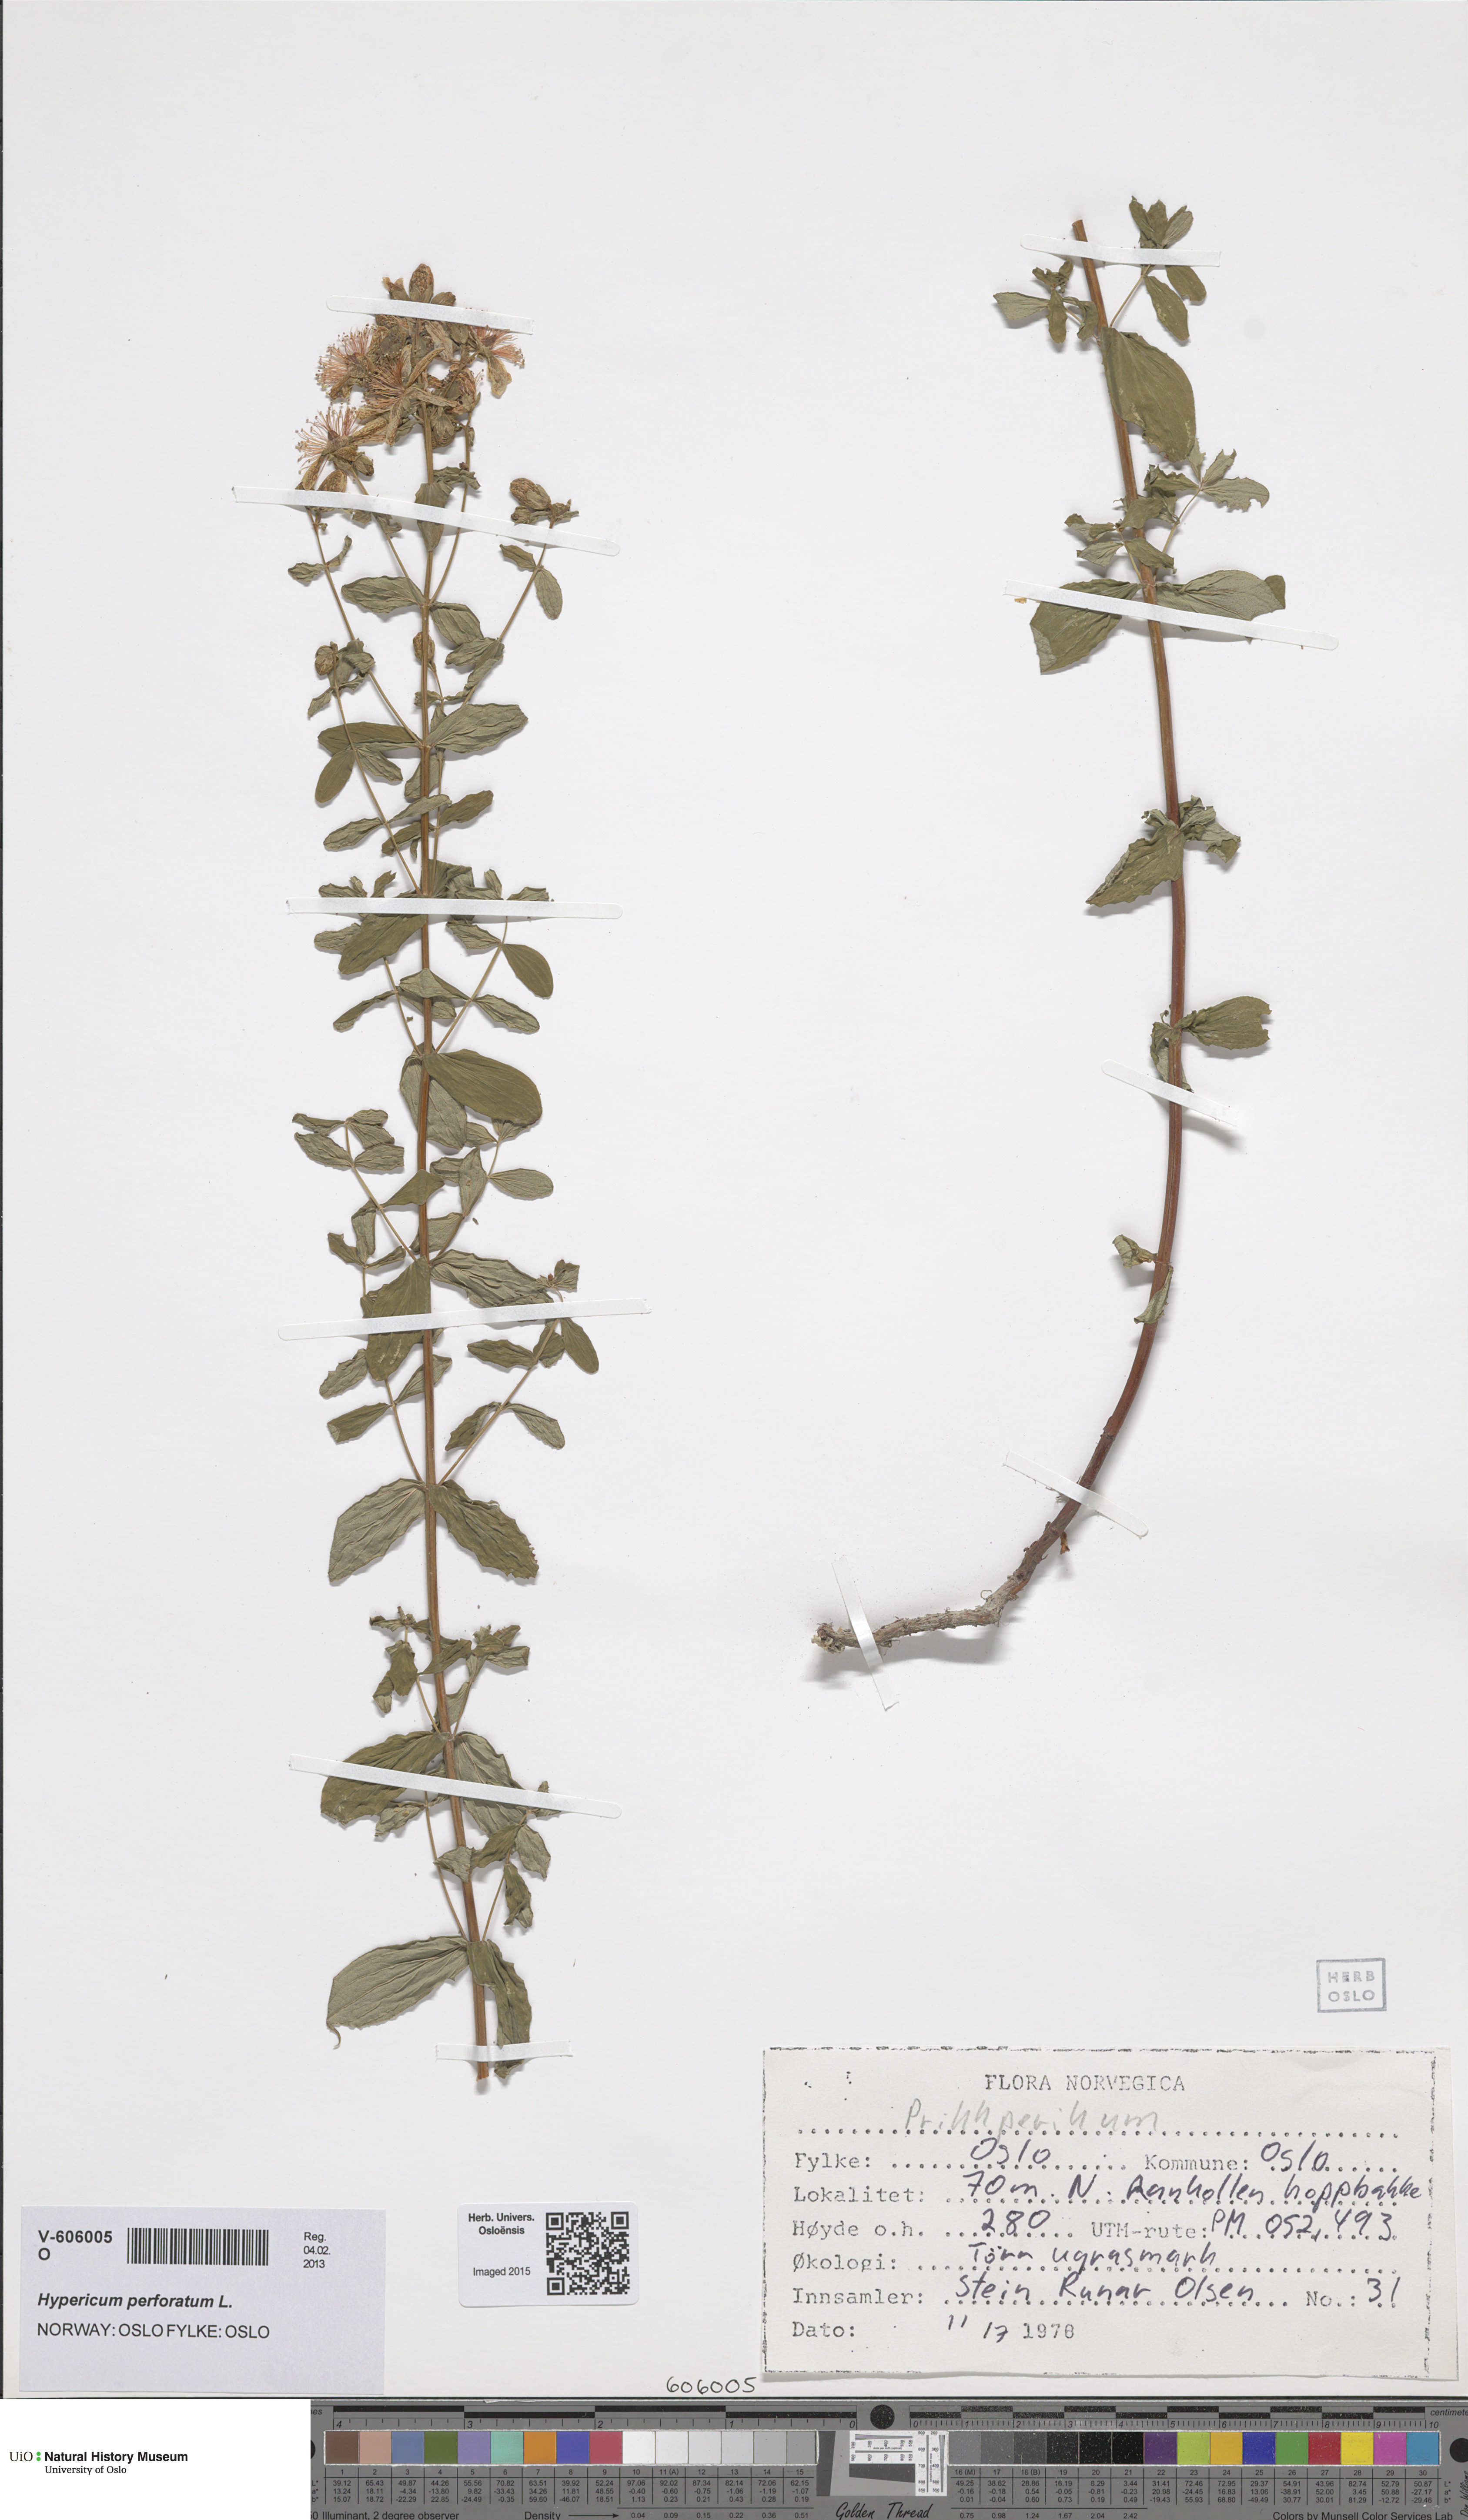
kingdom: Plantae
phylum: Tracheophyta
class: Magnoliopsida
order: Malpighiales
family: Hypericaceae
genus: Hypericum
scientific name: Hypericum maculatum
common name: Imperforate st. john's-wort
